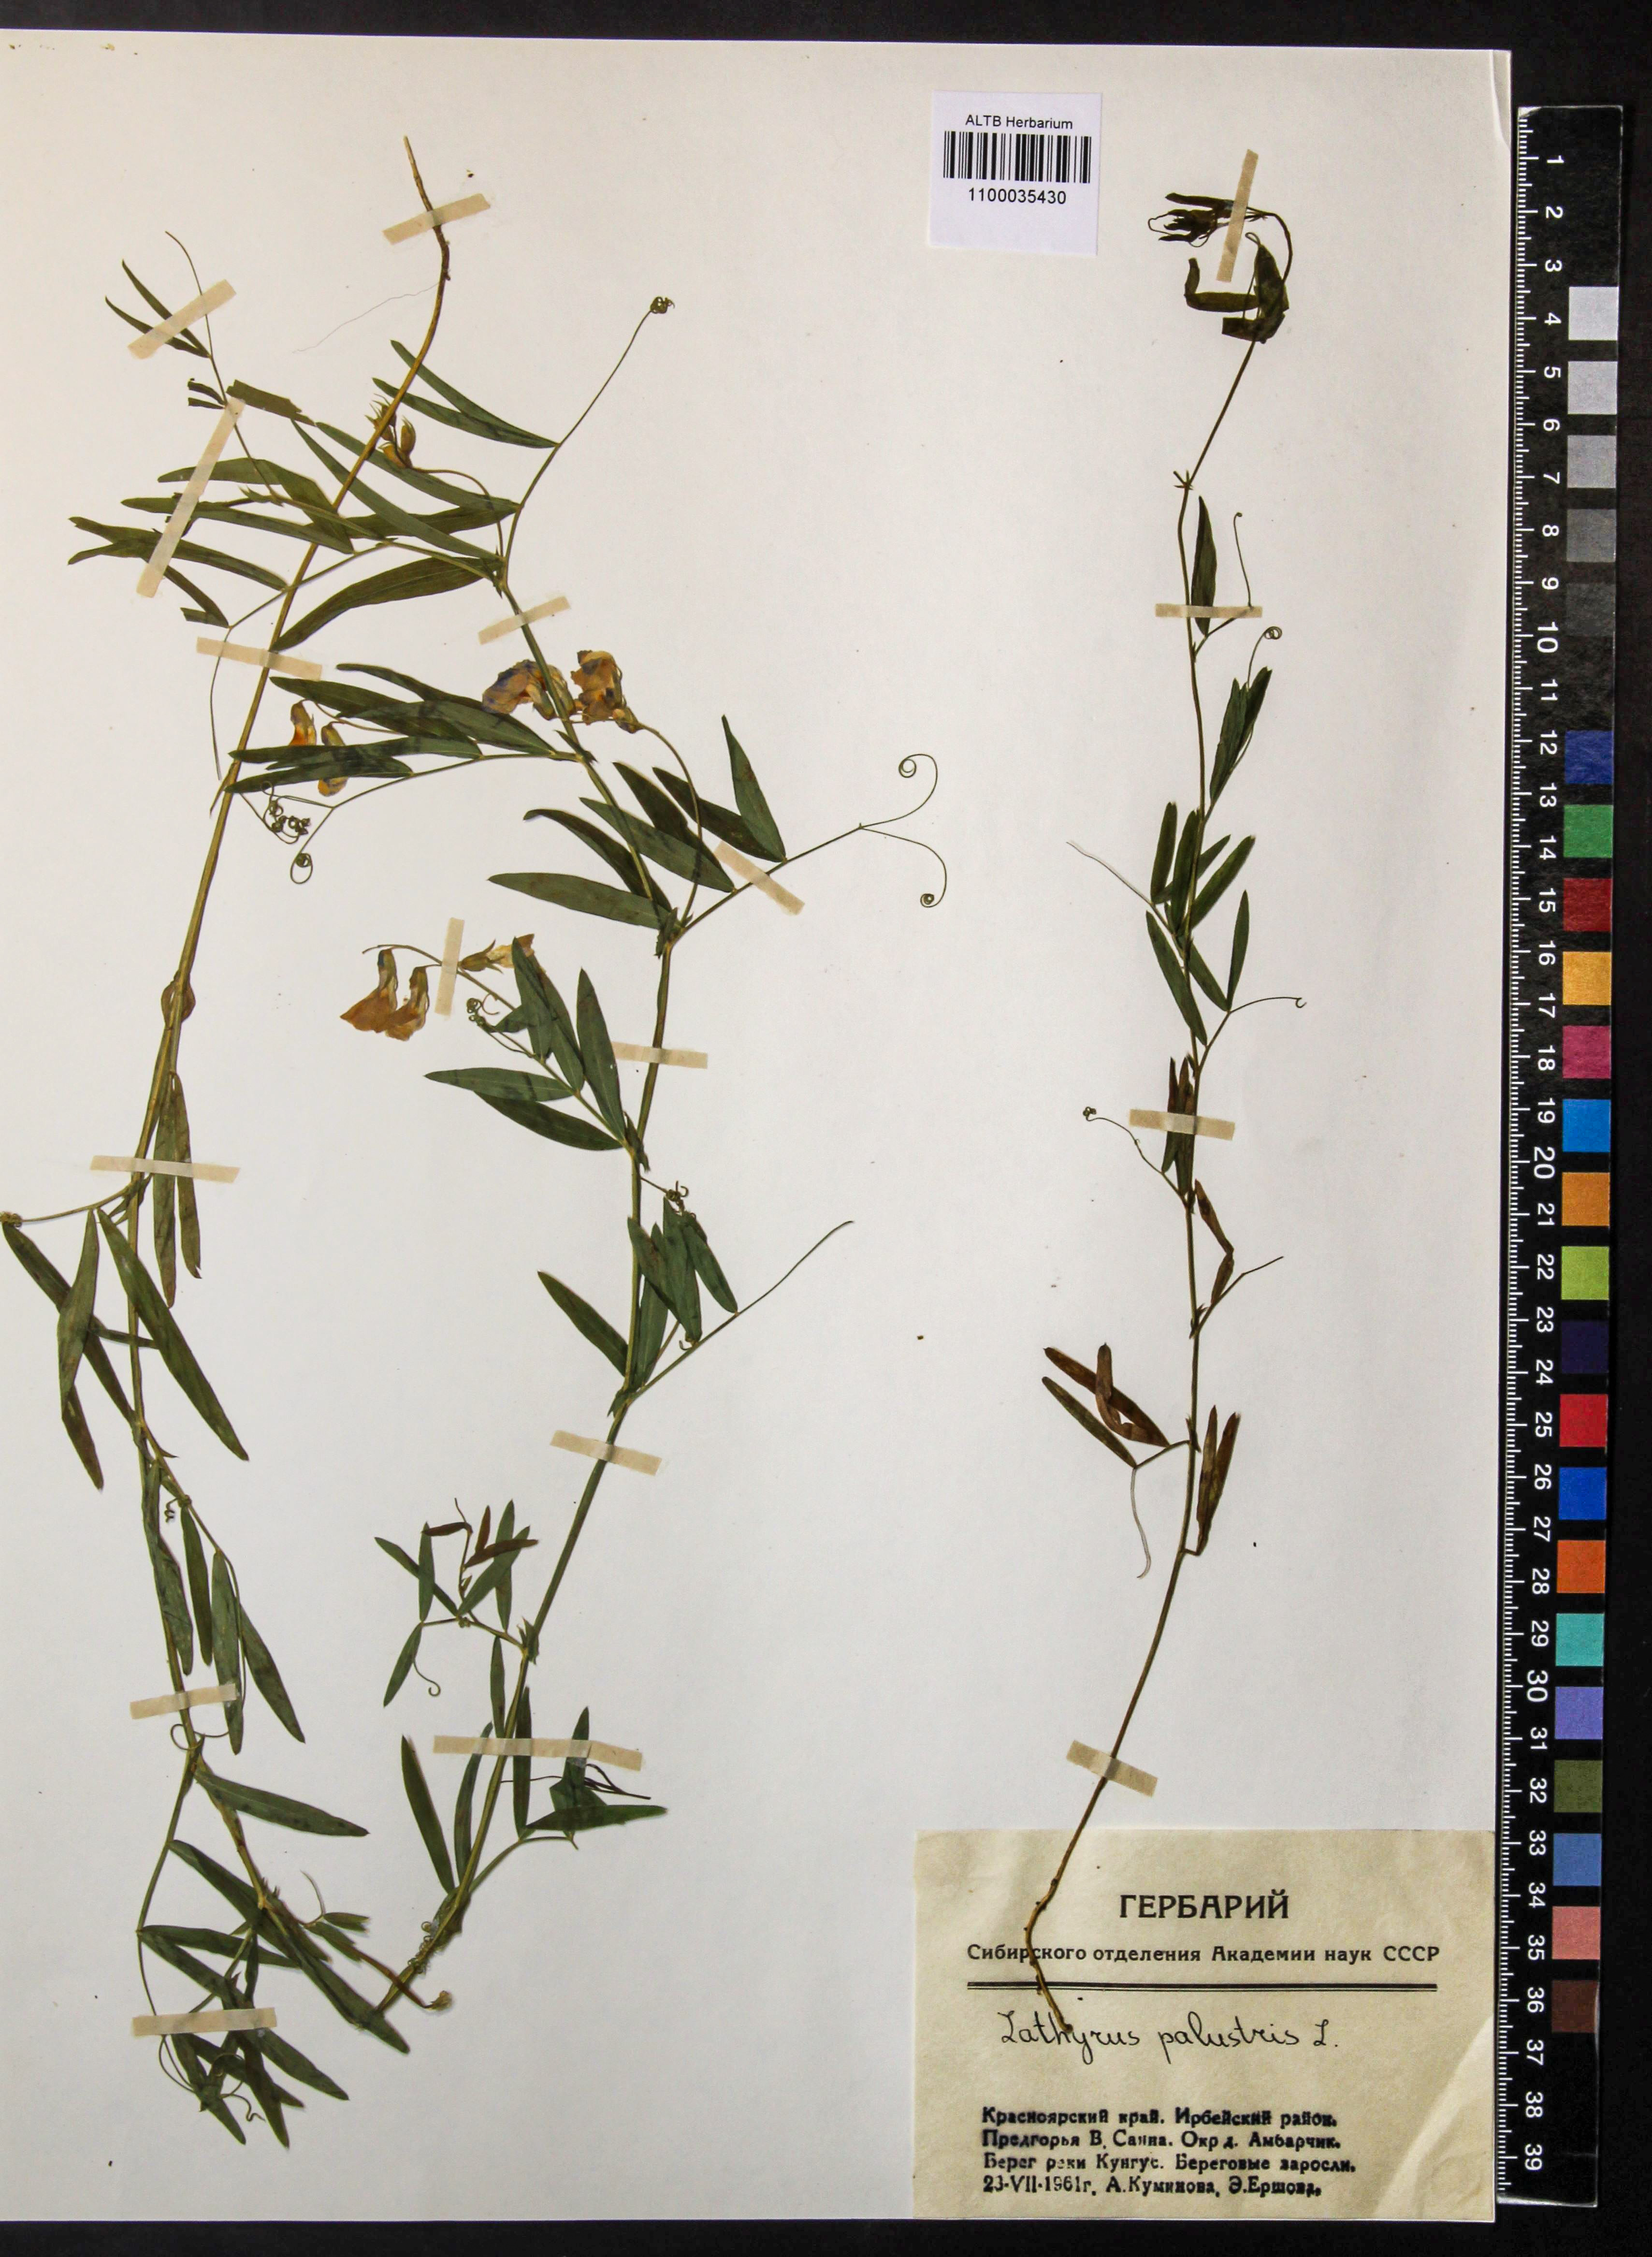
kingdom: Plantae
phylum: Tracheophyta
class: Magnoliopsida
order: Fabales
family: Fabaceae
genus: Lathyrus
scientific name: Lathyrus palustris
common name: Marsh pea
